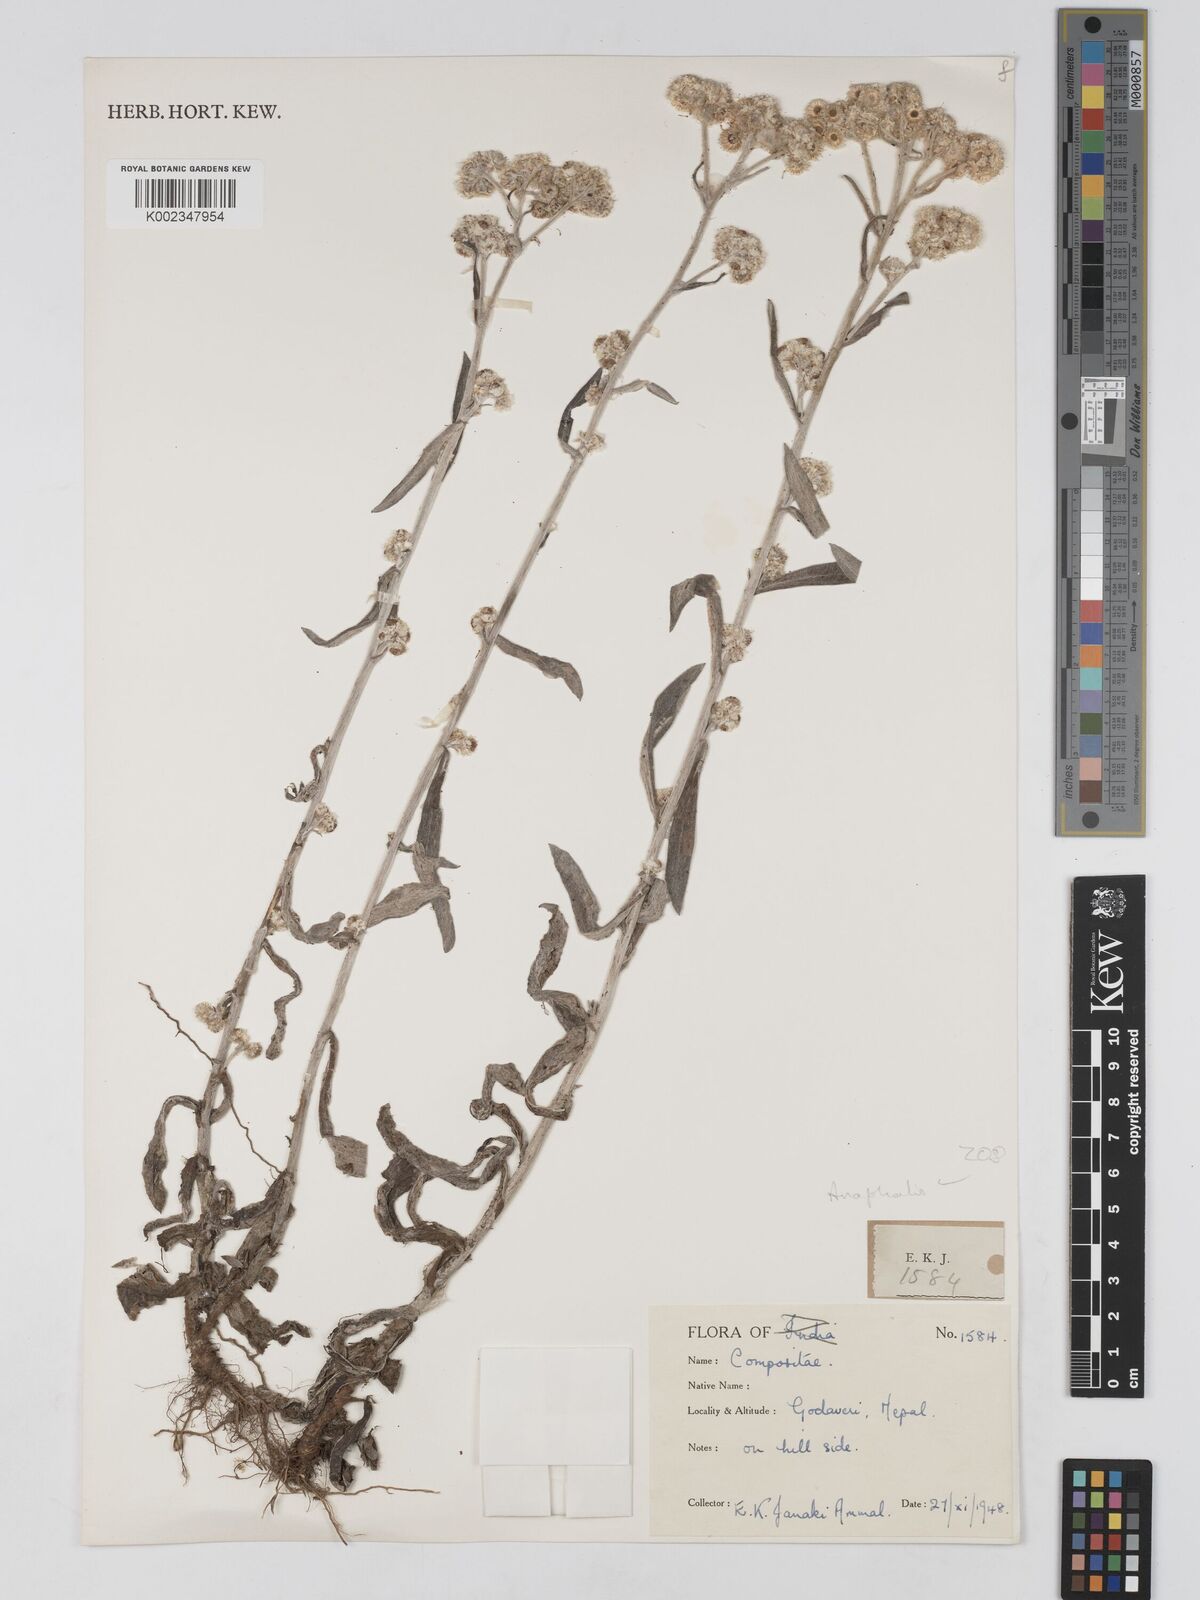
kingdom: Plantae
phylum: Tracheophyta
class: Magnoliopsida
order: Asterales
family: Asteraceae
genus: Anaphalis
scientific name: Anaphalis
